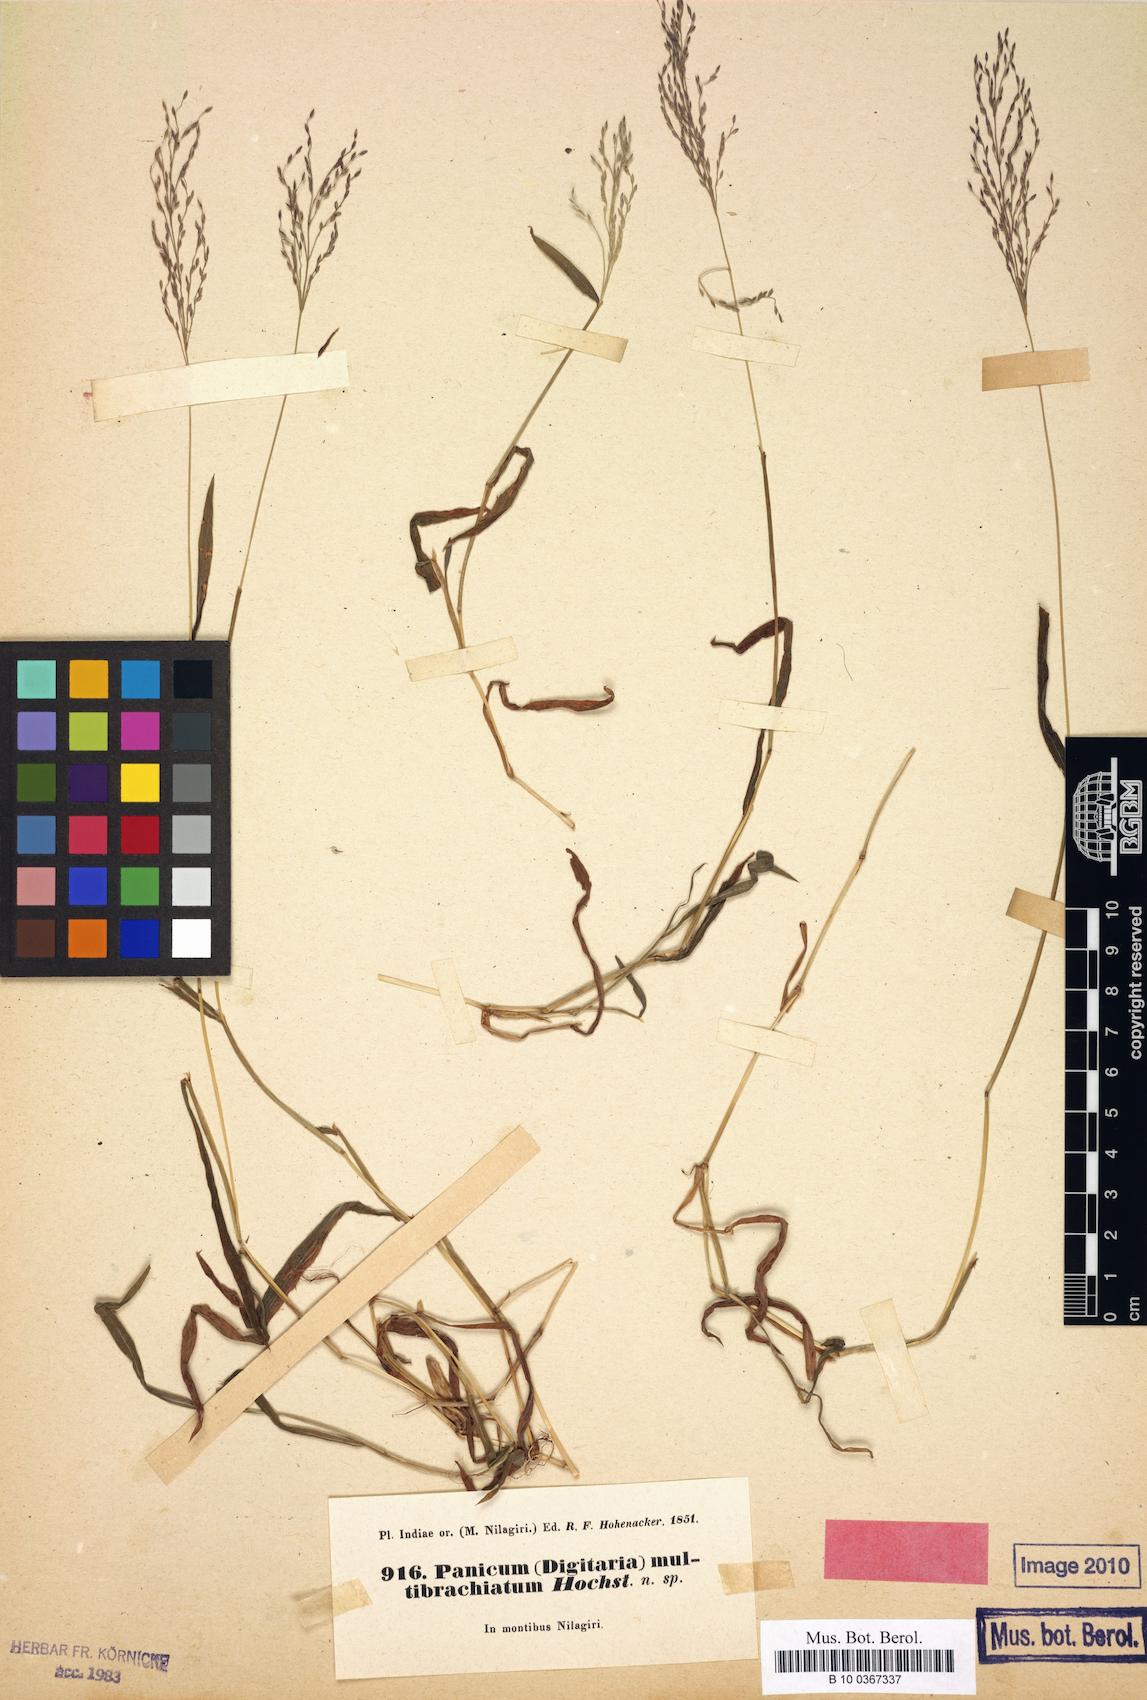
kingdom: Plantae
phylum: Tracheophyta
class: Liliopsida
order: Poales
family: Poaceae
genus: Digitaria
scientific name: Digitaria wallichiana
